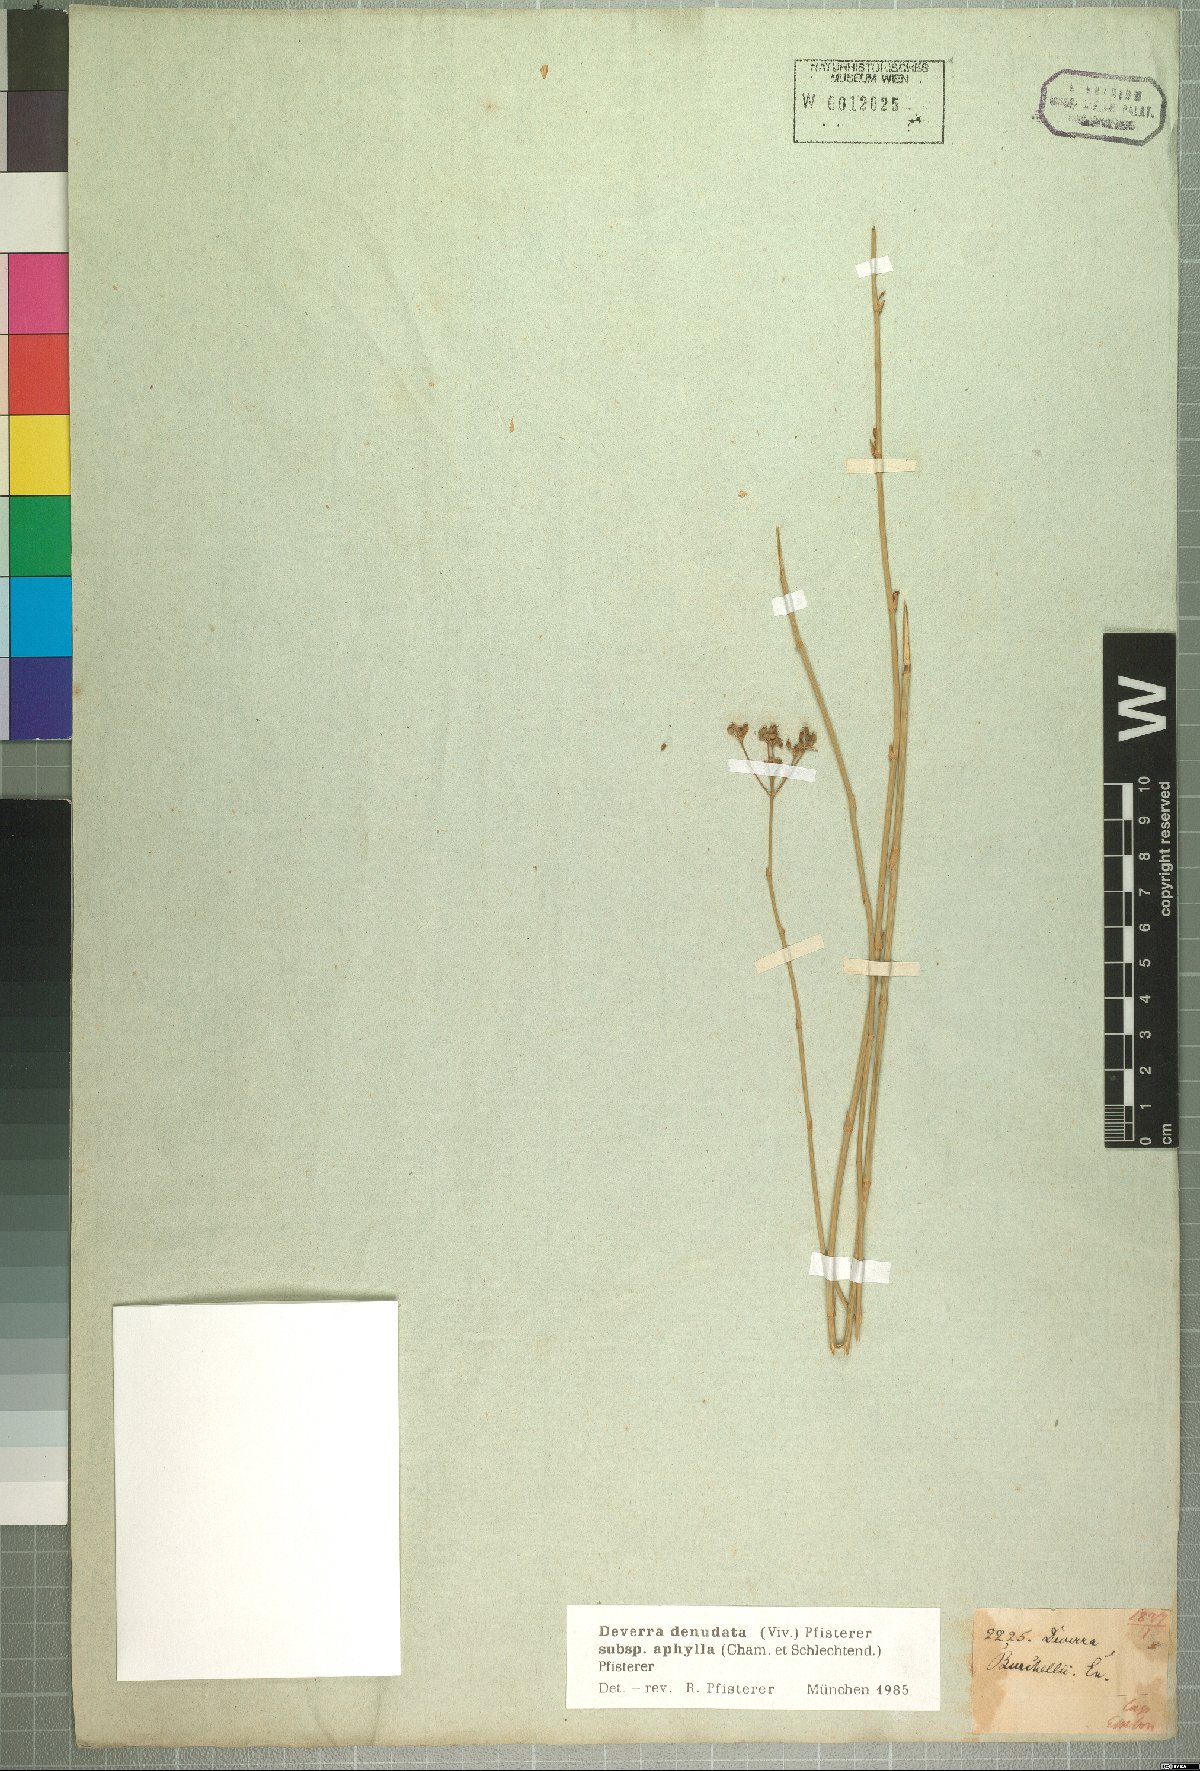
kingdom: Plantae
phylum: Tracheophyta
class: Magnoliopsida
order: Apiales
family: Apiaceae
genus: Deverra
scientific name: Deverra aphylla
